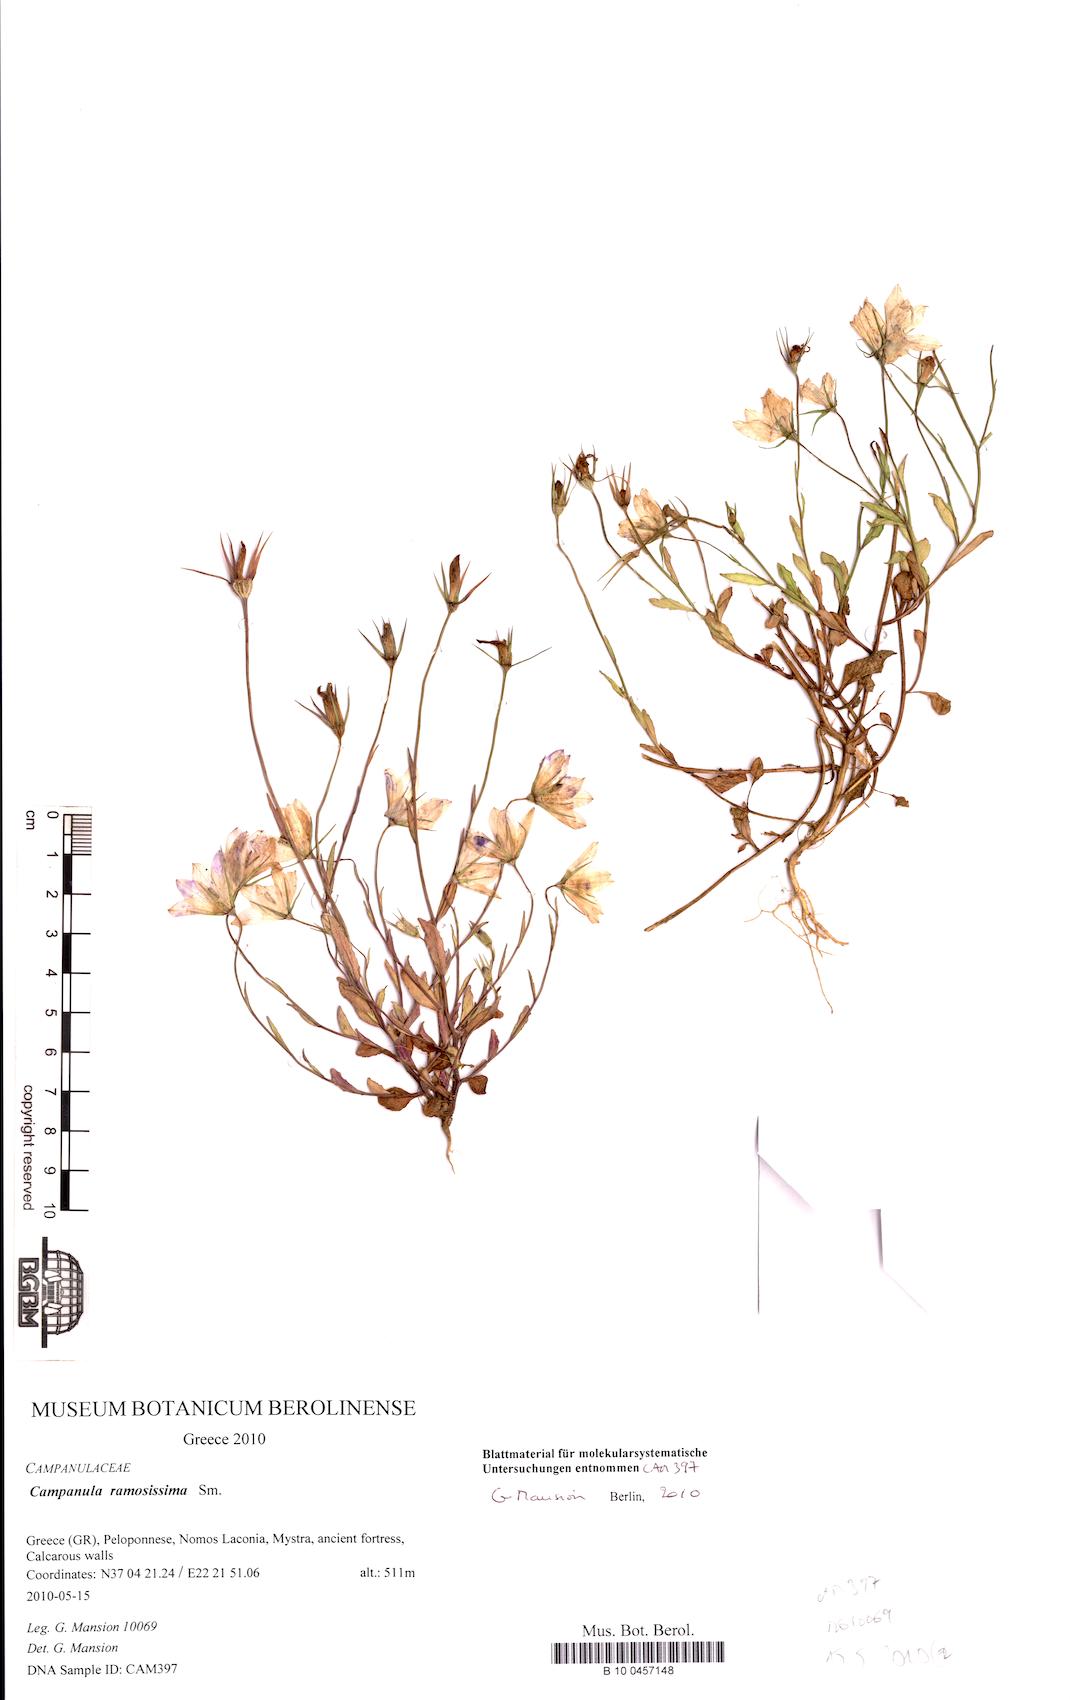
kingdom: Plantae
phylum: Tracheophyta
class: Magnoliopsida
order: Asterales
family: Campanulaceae
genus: Campanula
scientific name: Campanula ramosissima
